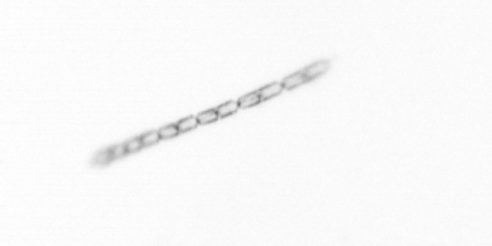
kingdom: Chromista
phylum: Ochrophyta
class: Bacillariophyceae
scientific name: Bacillariophyceae
